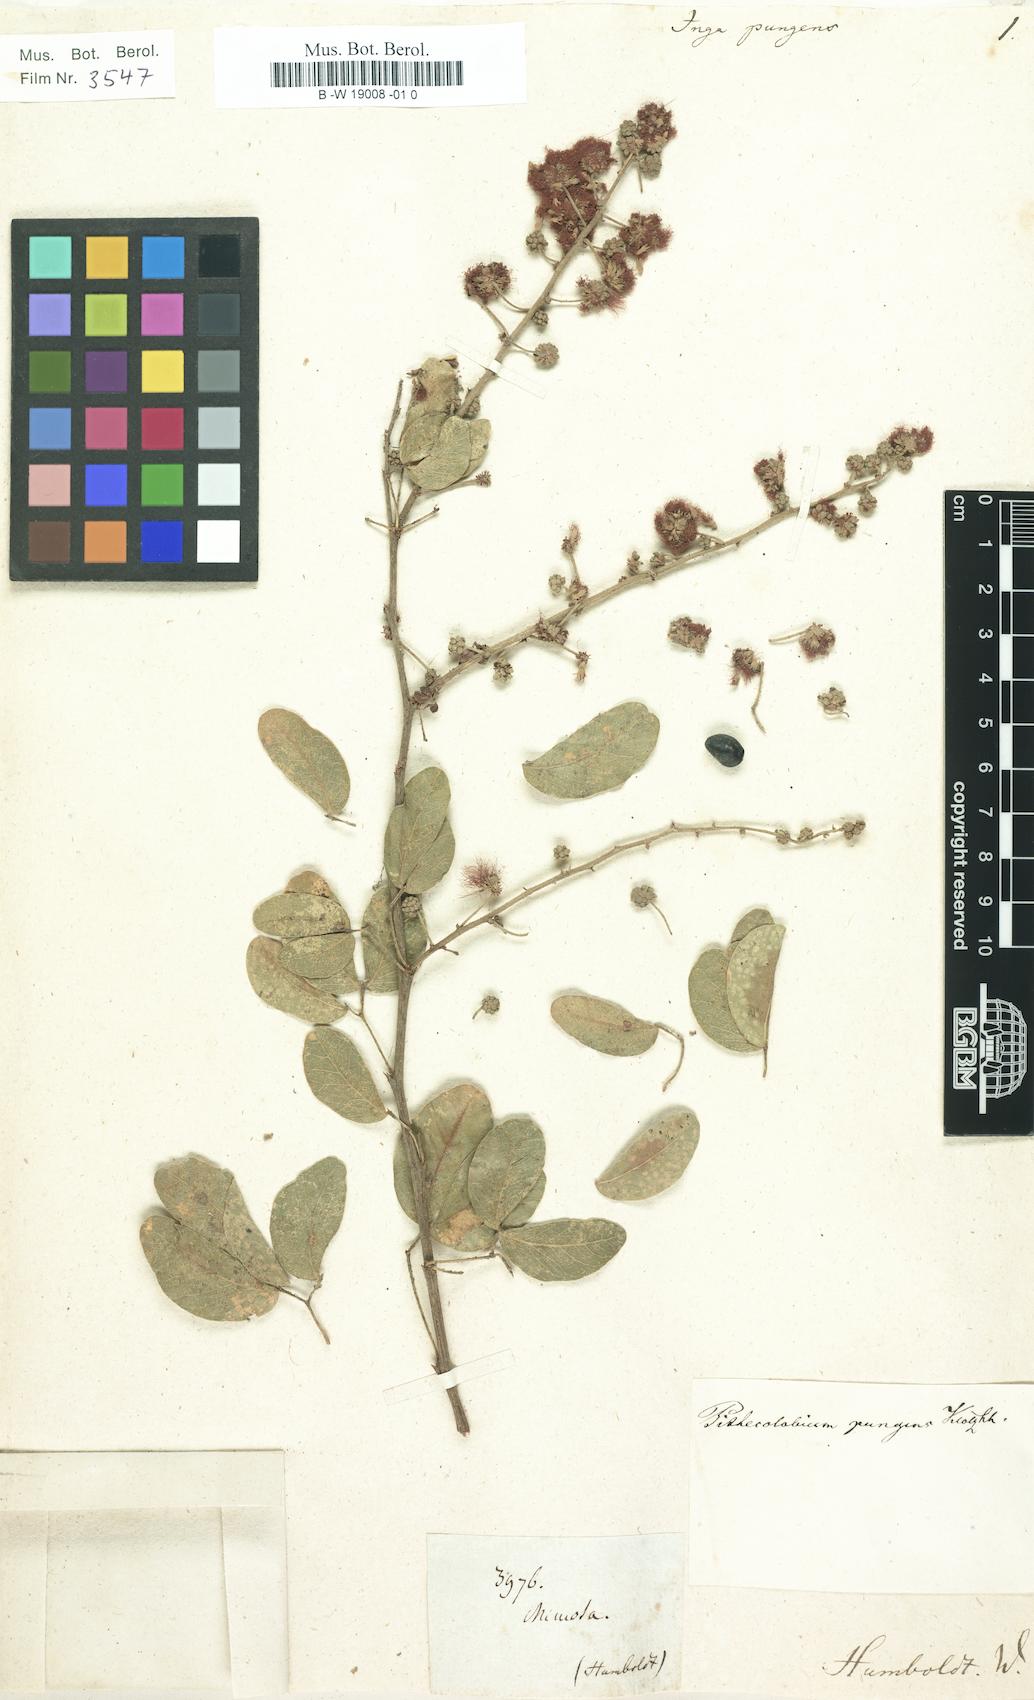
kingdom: Plantae
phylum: Tracheophyta
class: Magnoliopsida
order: Fabales
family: Fabaceae
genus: Pithecellobium
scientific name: Pithecellobium dulce
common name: Monkeypod
